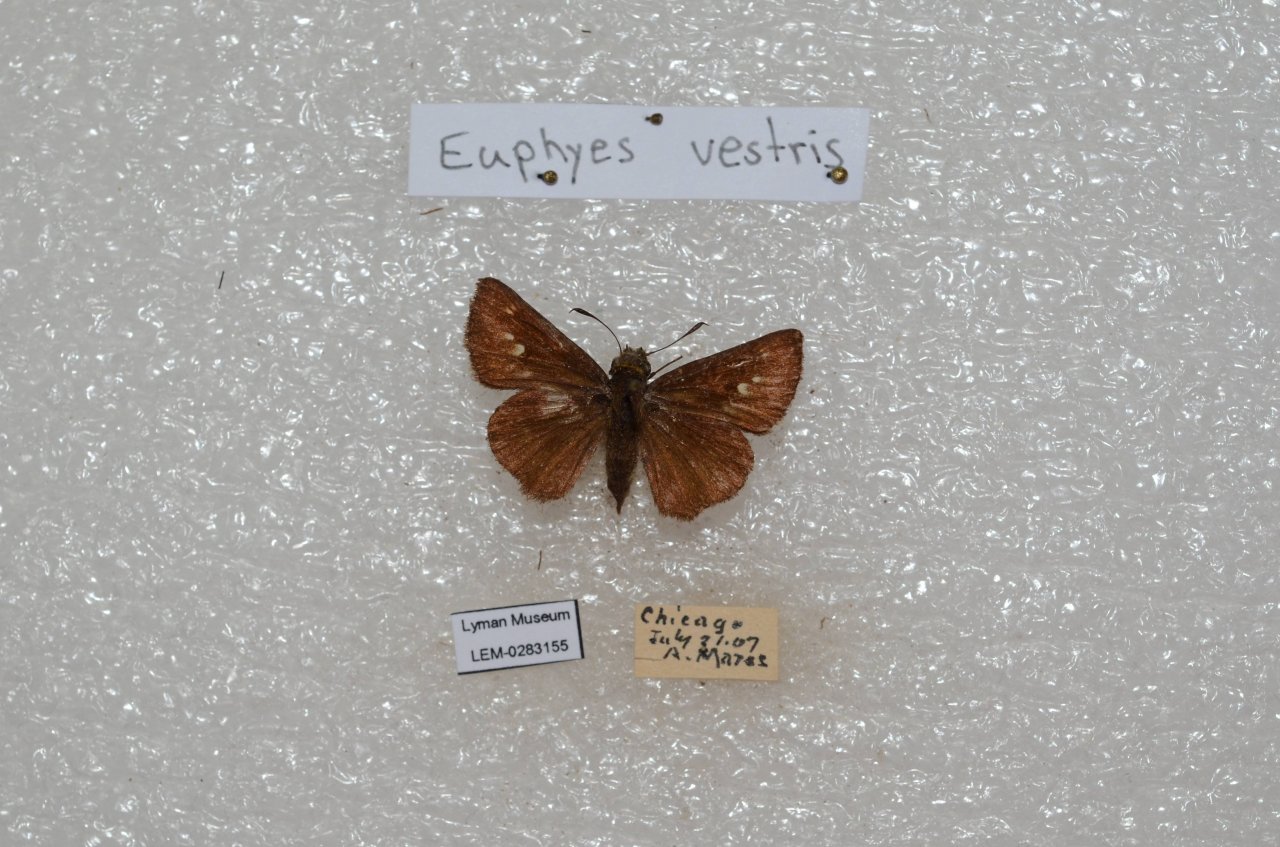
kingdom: Animalia
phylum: Arthropoda
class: Insecta
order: Lepidoptera
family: Hesperiidae
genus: Euphyes
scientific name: Euphyes vestris
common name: Dun Skipper
